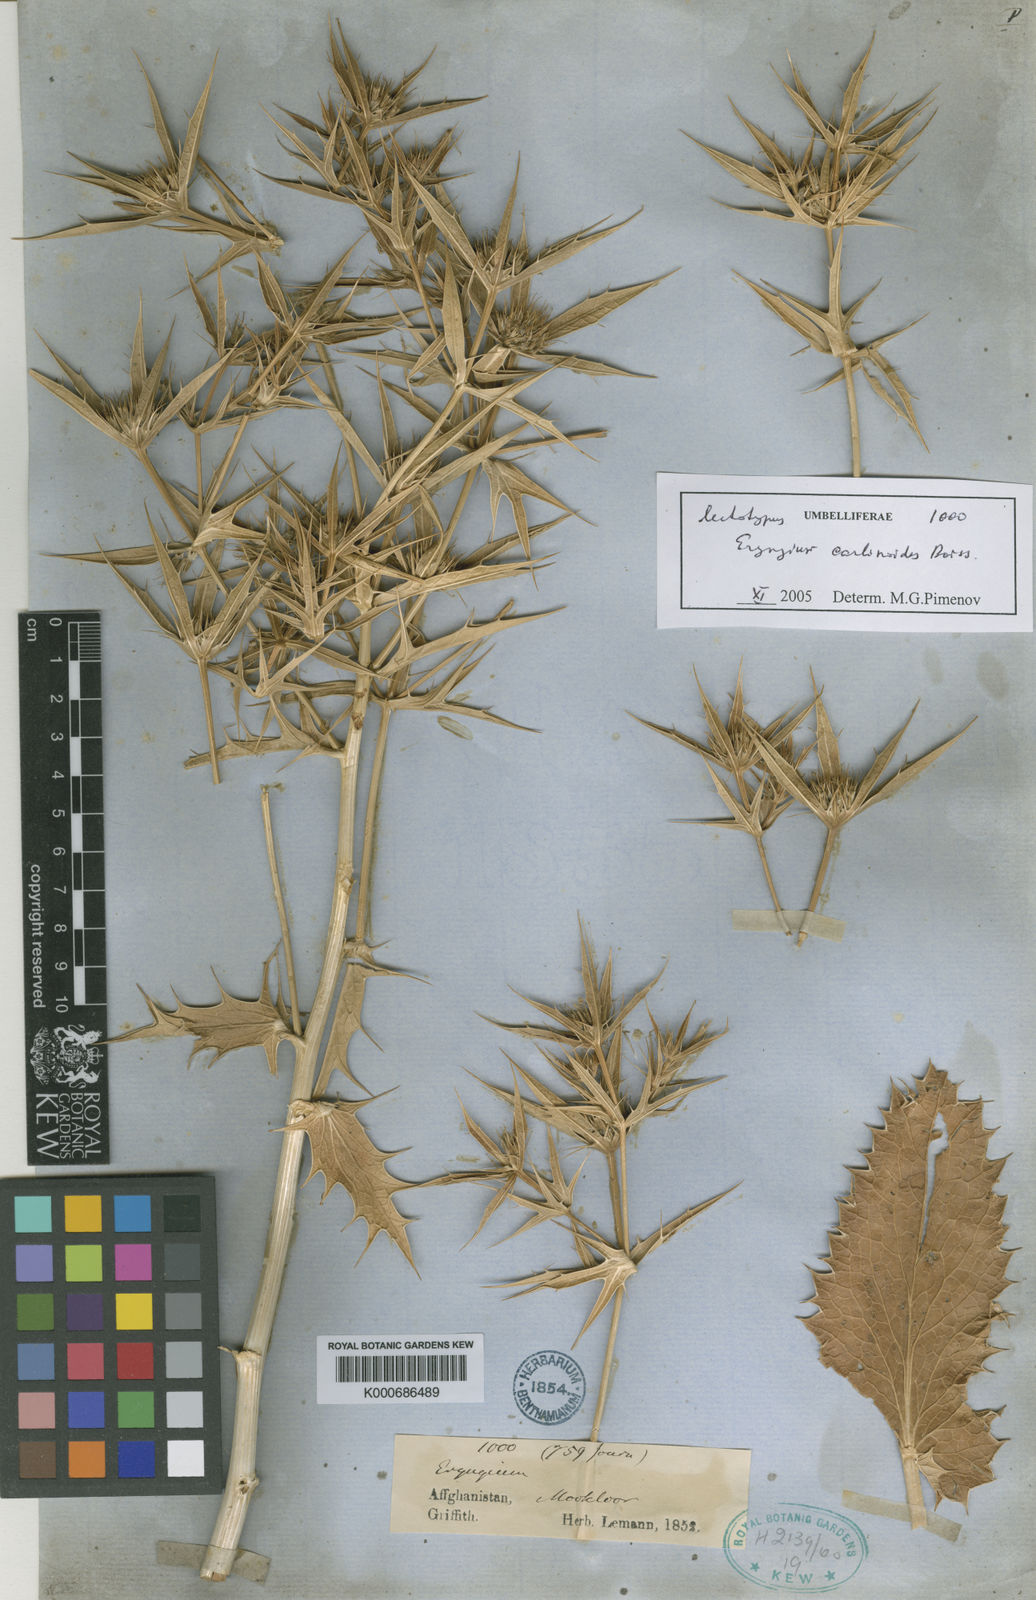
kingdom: Plantae
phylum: Tracheophyta
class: Magnoliopsida
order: Apiales
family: Apiaceae
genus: Eryngium
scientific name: Eryngium carlinoides
